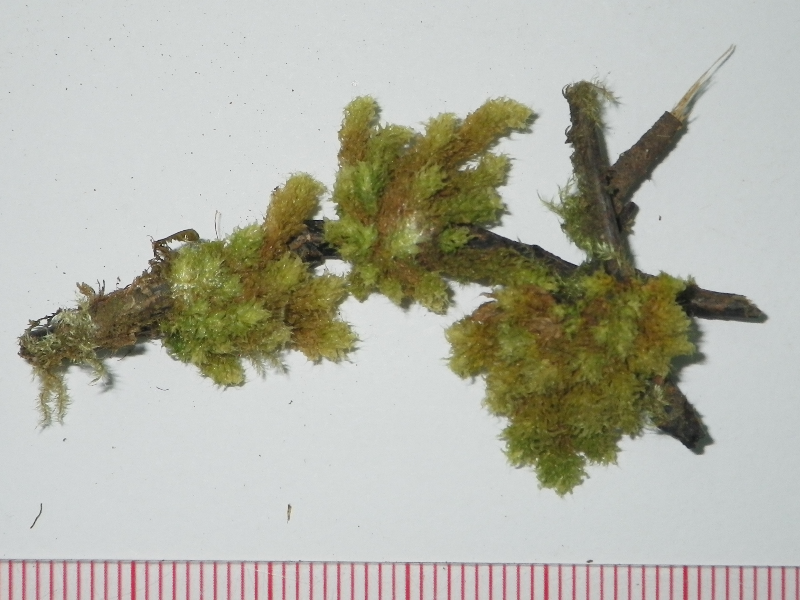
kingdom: Plantae
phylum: Bryophyta
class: Bryopsida
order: Hookeriales
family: Daltoniaceae
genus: Distichophyllum
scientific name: Distichophyllum cuspidatum
